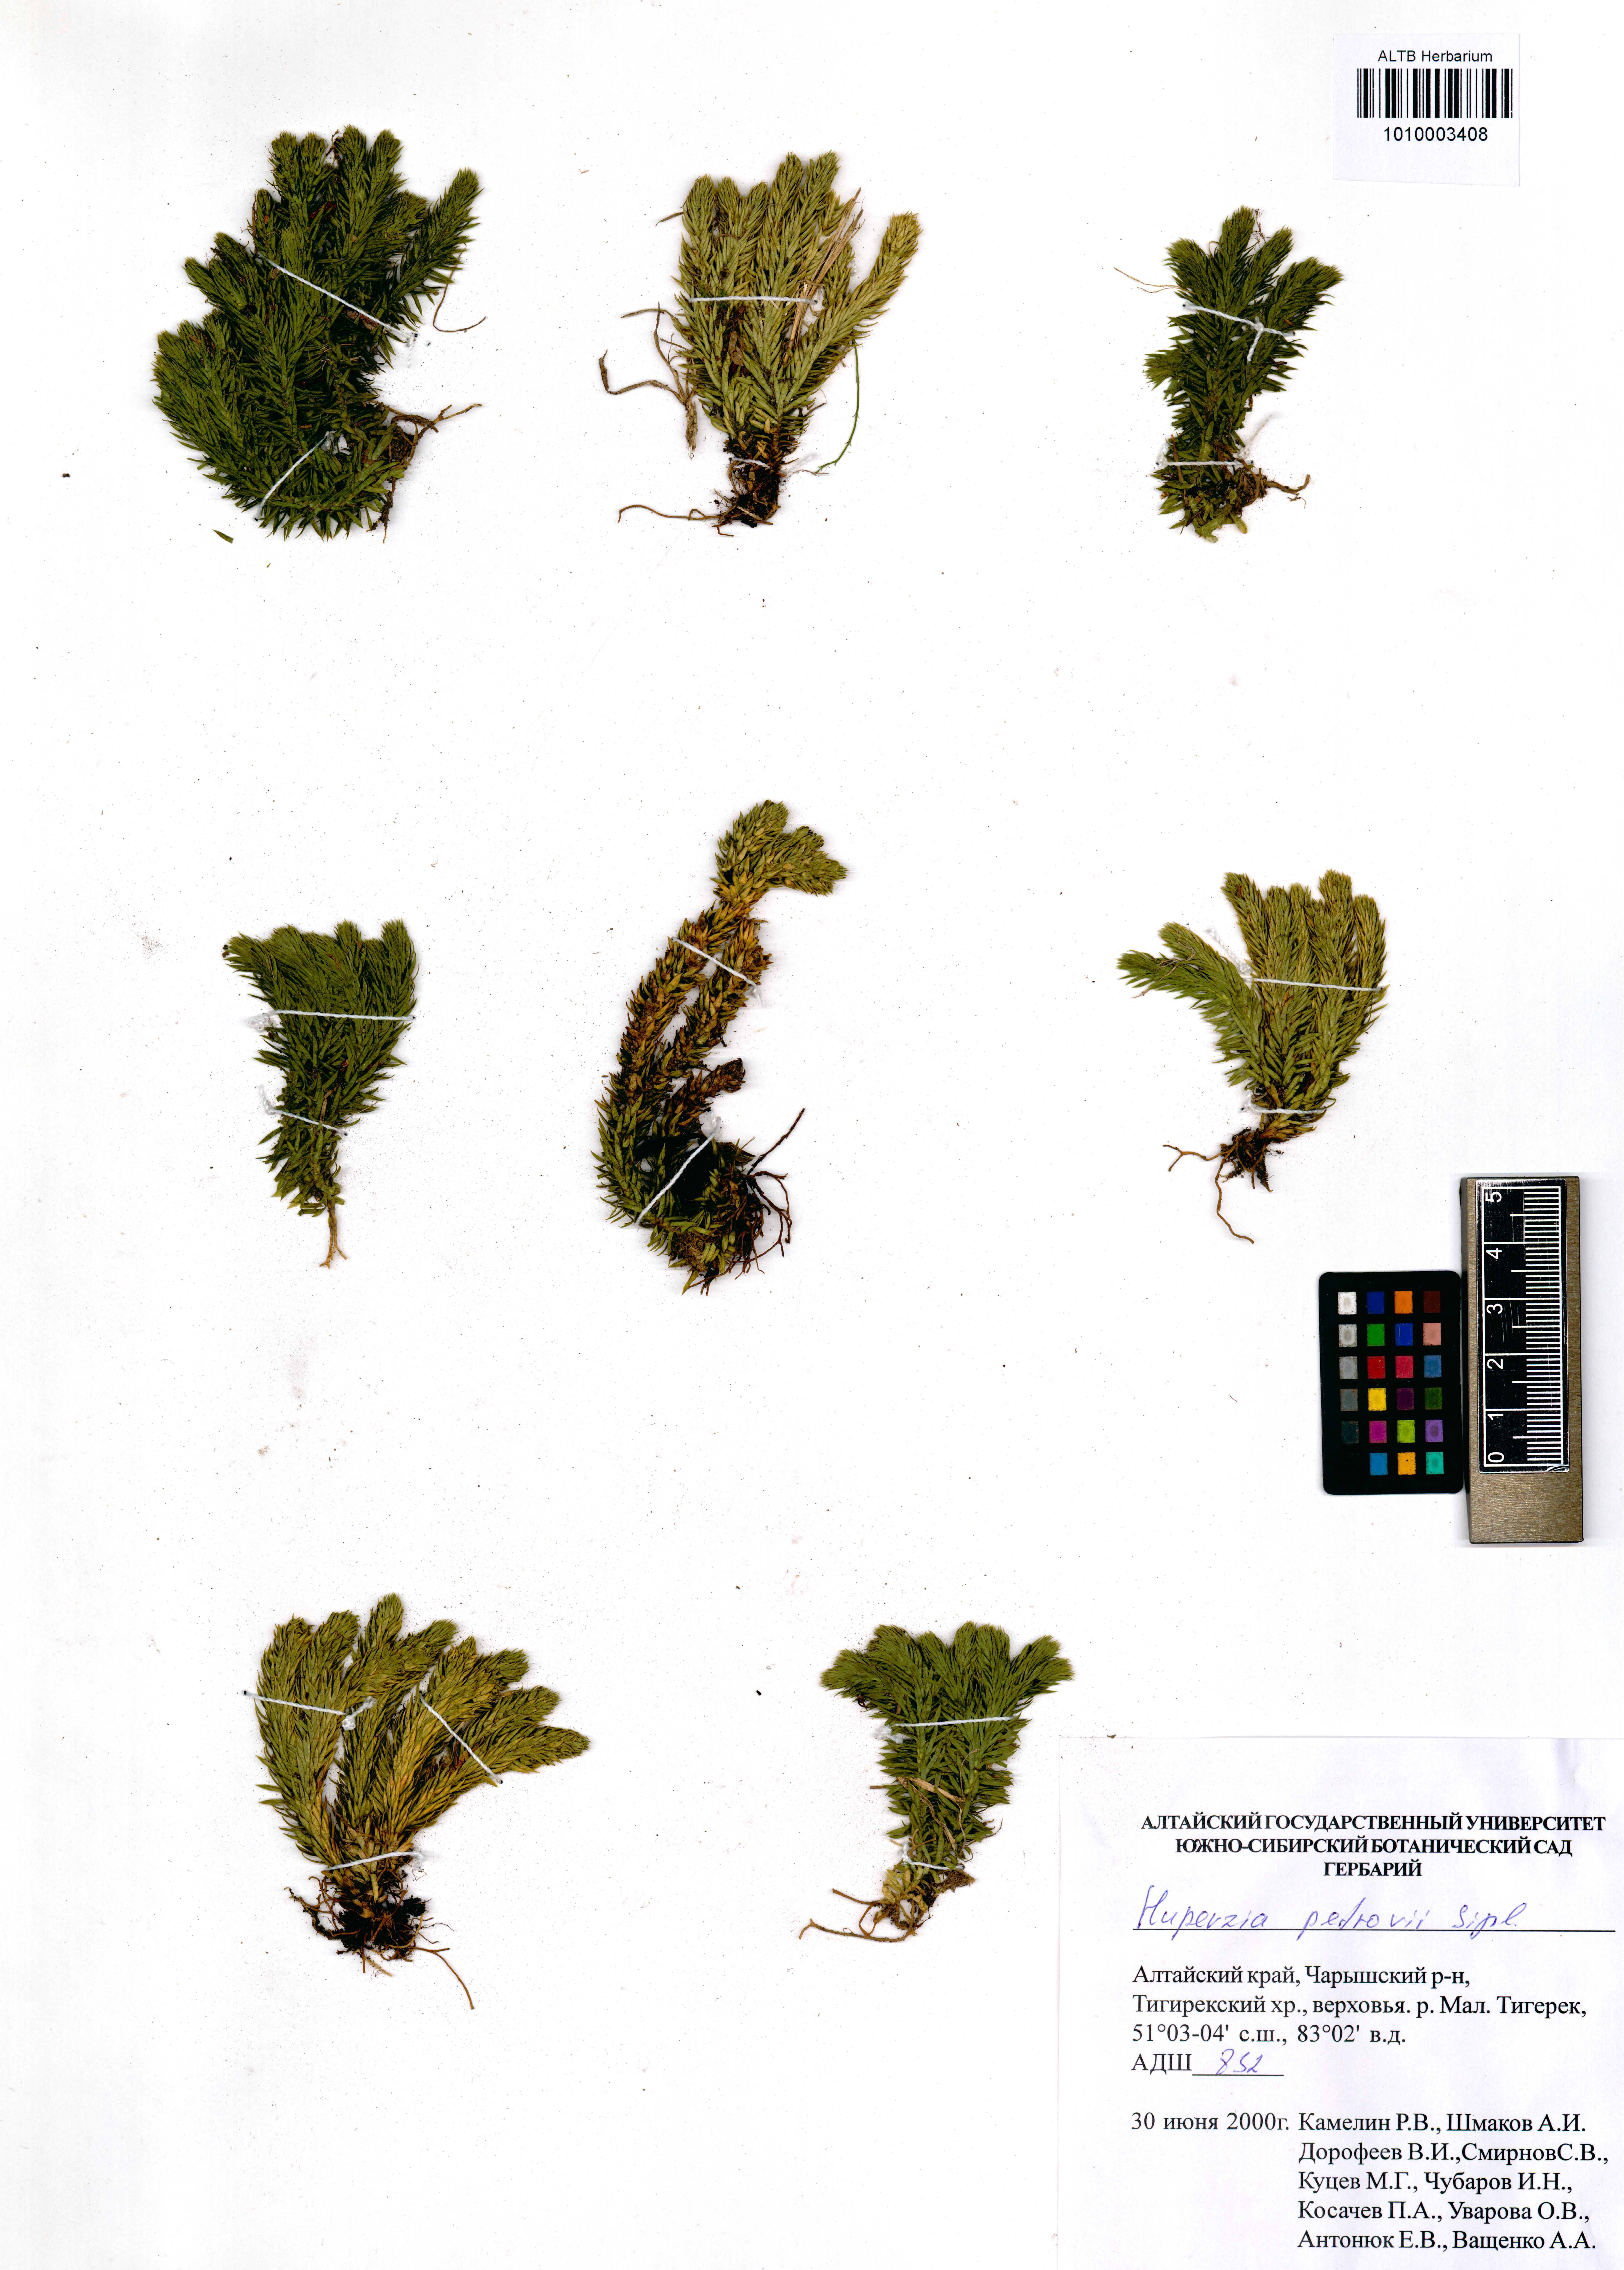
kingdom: Plantae
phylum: Tracheophyta
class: Lycopodiopsida
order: Lycopodiales
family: Lycopodiaceae
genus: Huperzia
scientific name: Huperzia selago
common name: Northern firmoss
